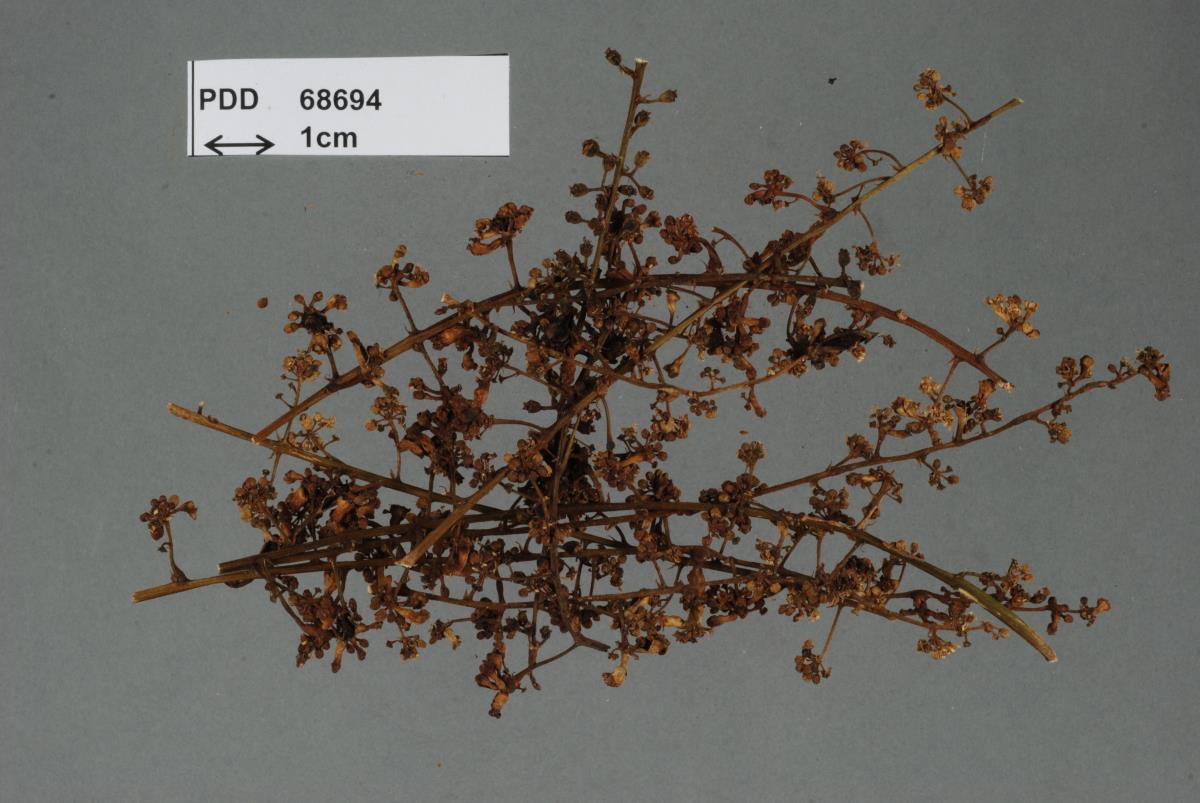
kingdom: Fungi
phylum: Basidiomycota
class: Ustilaginomycetes
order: Urocystidales
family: Urocystidaceae
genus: Mundkurella
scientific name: Mundkurella schefflerae
